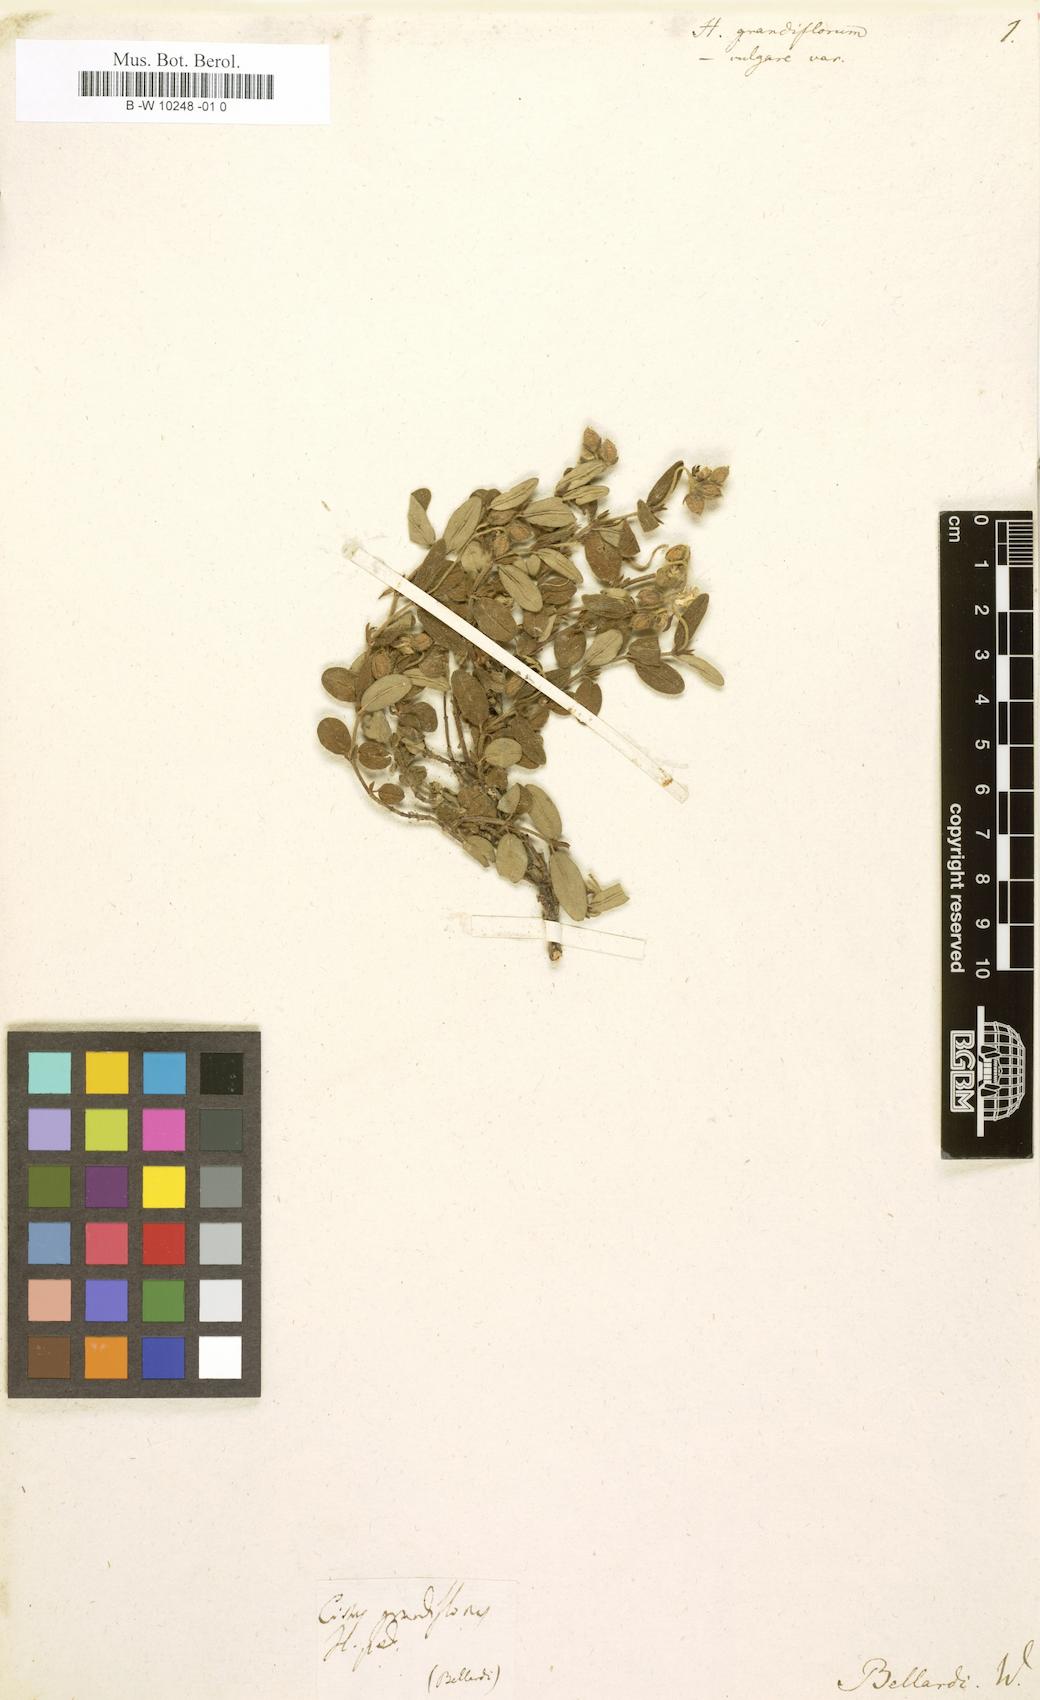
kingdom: Plantae
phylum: Tracheophyta
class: Magnoliopsida
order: Malvales
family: Cistaceae
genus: Helianthemum
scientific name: Helianthemum nummularium
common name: Common rock-rose
